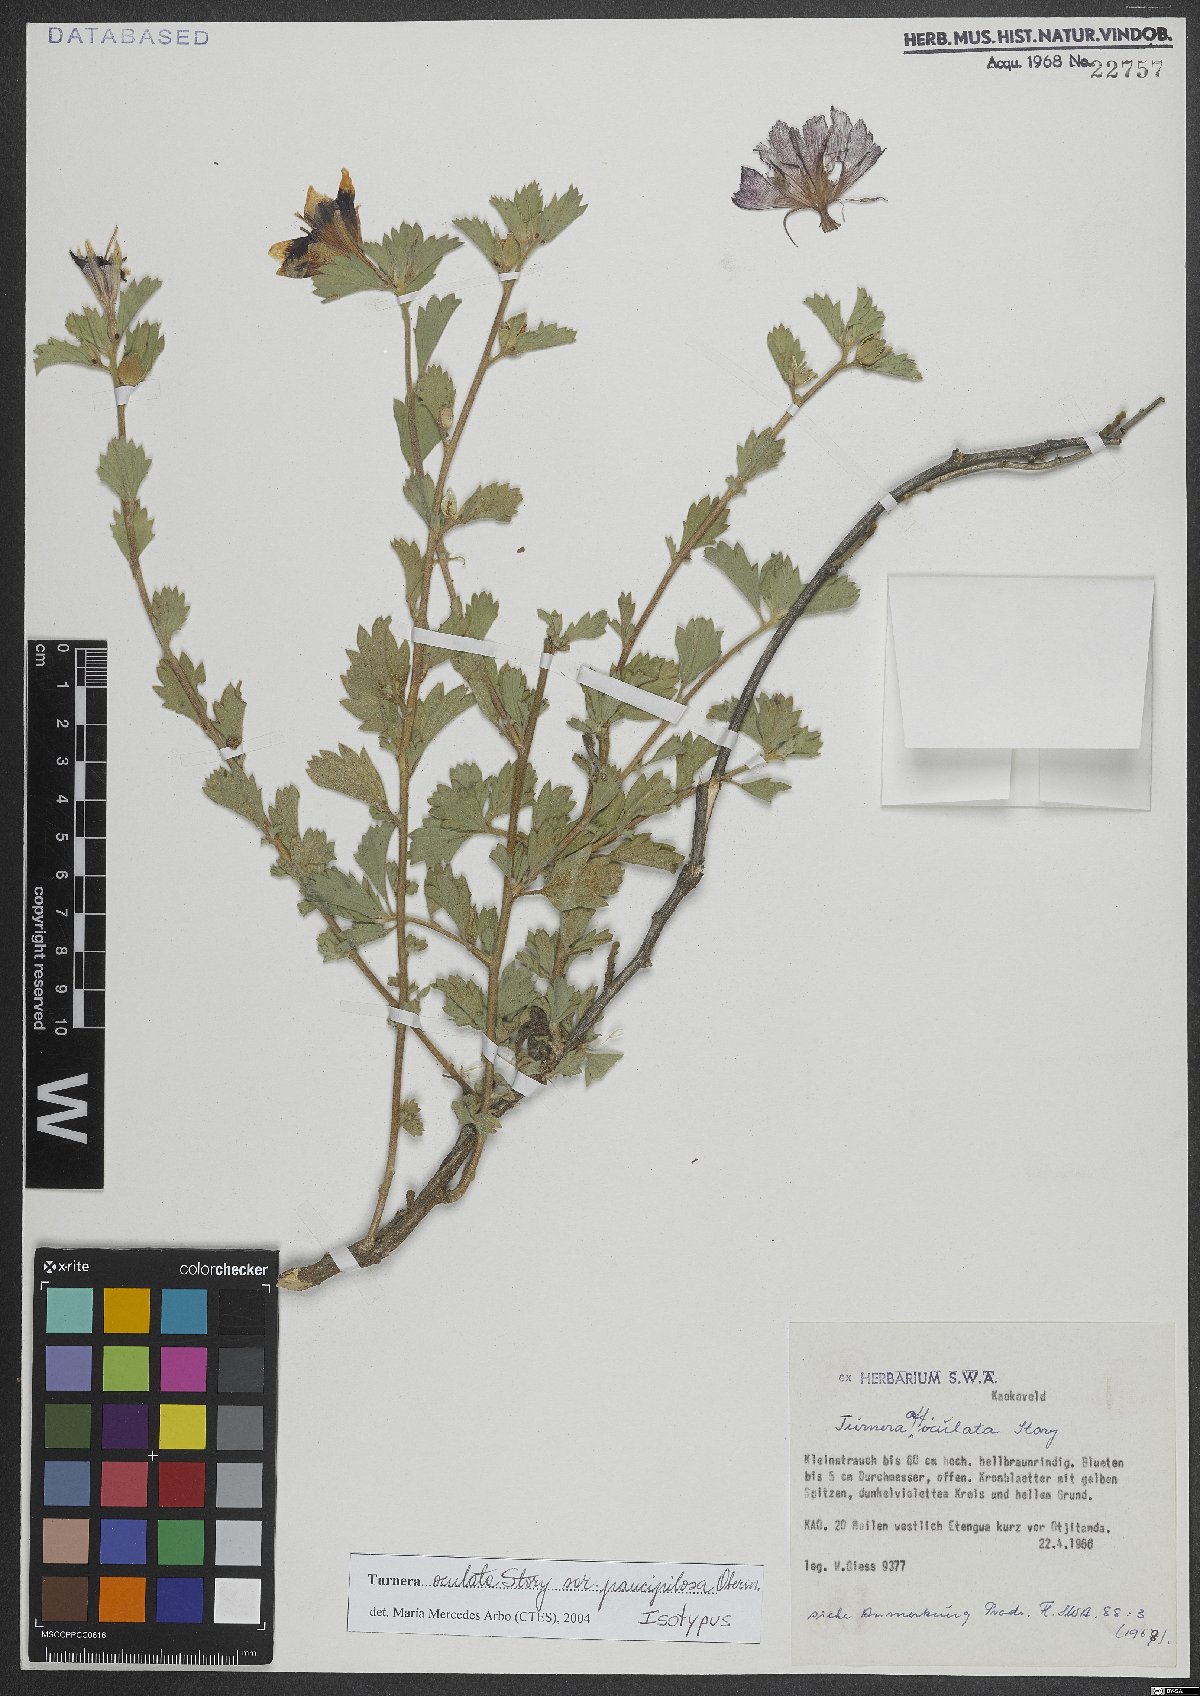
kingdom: Plantae
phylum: Tracheophyta
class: Magnoliopsida
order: Malpighiales
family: Turneraceae
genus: Turnera
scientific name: Turnera oculata
